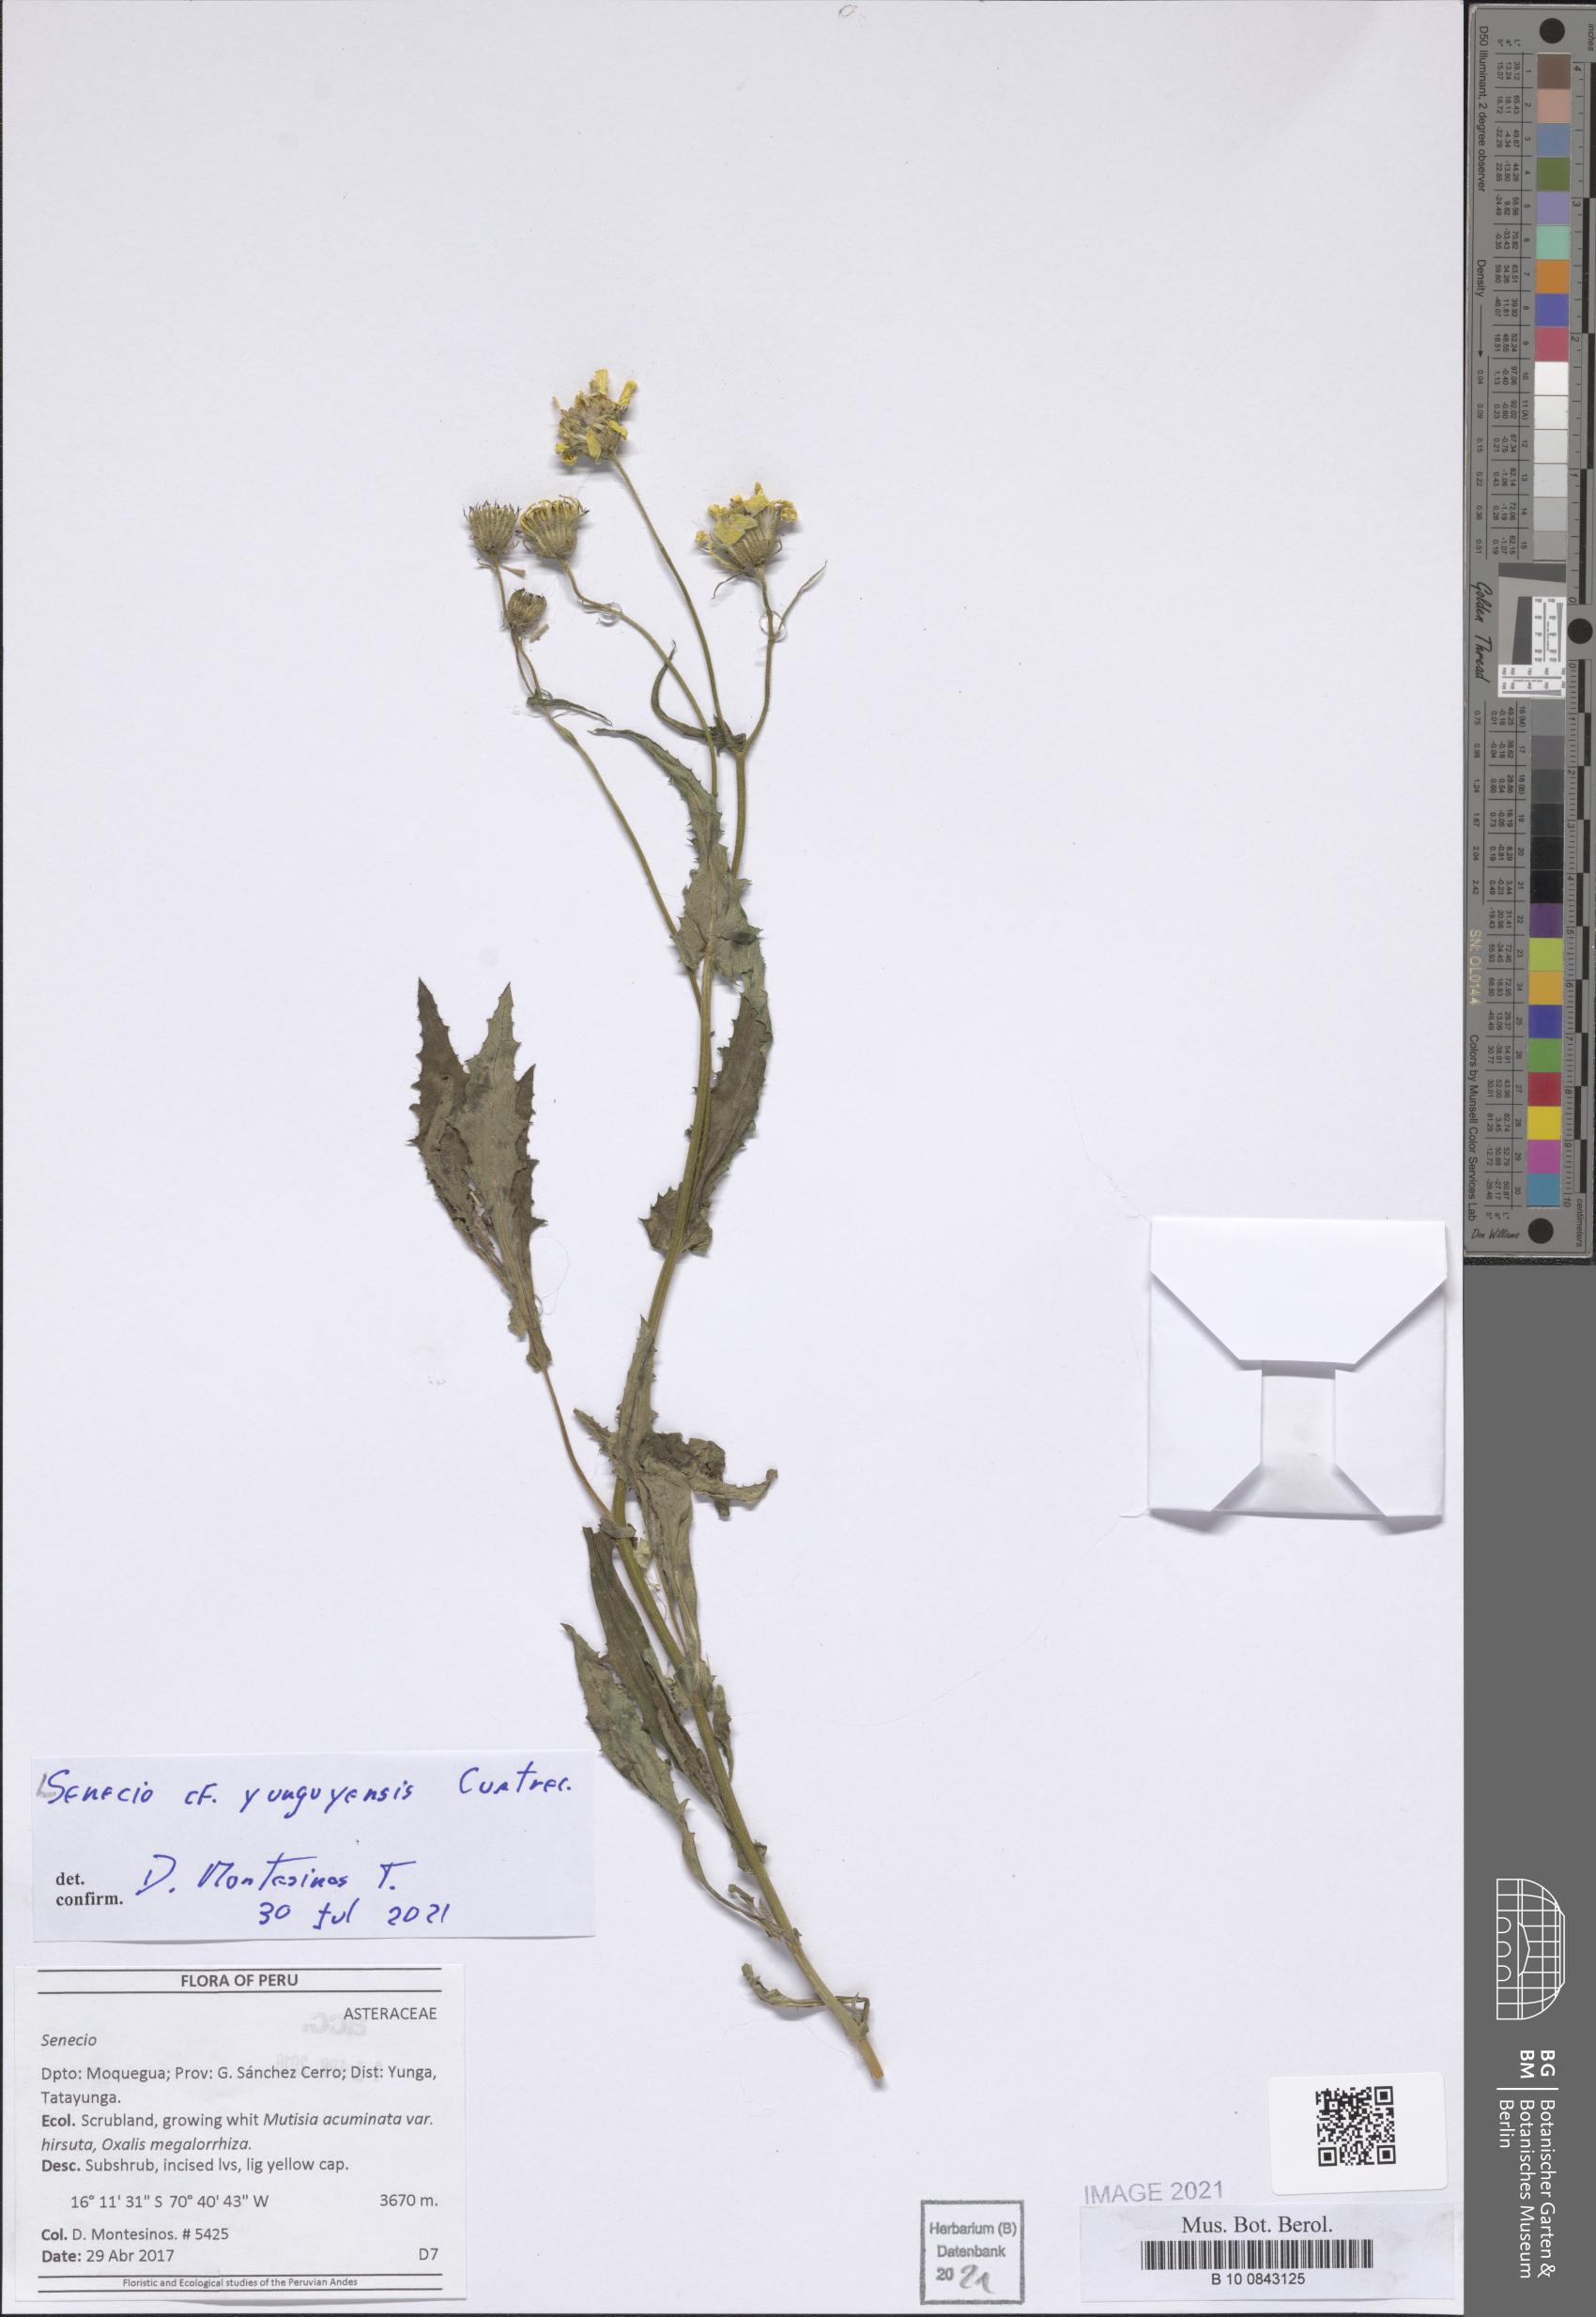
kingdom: Plantae
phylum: Tracheophyta
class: Magnoliopsida
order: Asterales
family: Asteraceae
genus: Senecio
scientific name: Senecio yunguyensis
